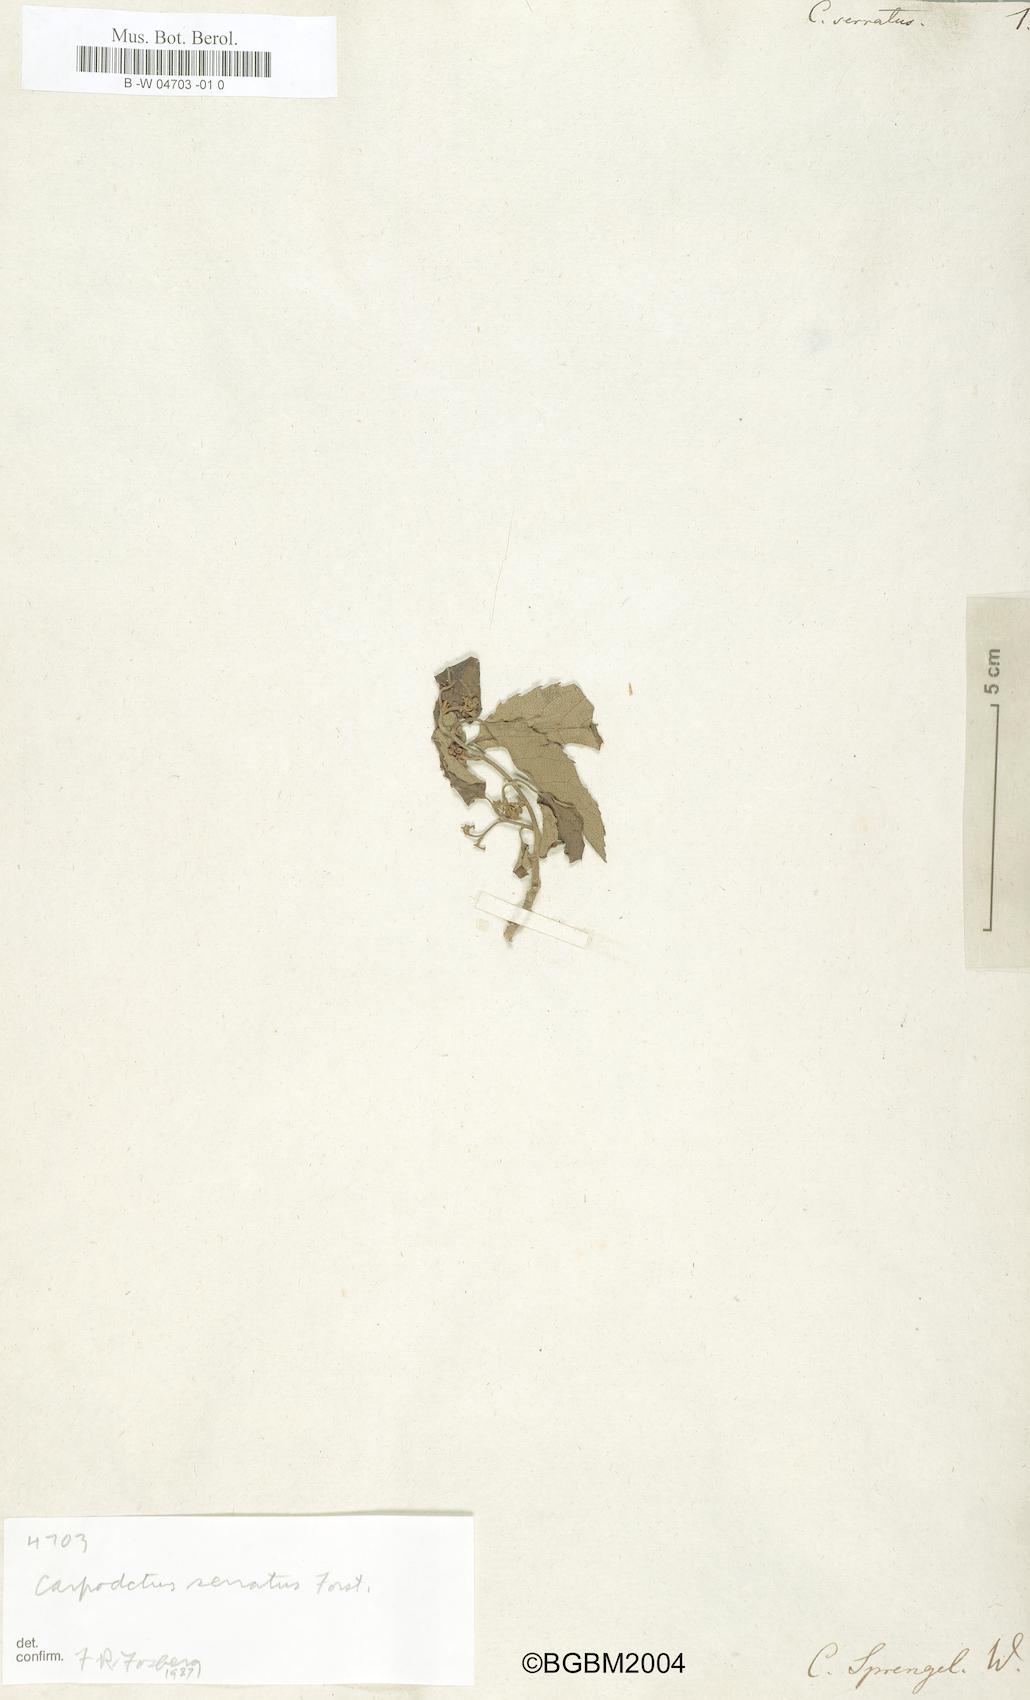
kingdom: Plantae
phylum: Tracheophyta
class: Magnoliopsida
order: Asterales
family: Rousseaceae
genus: Carpodetus
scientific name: Carpodetus serratus
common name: White mapau
